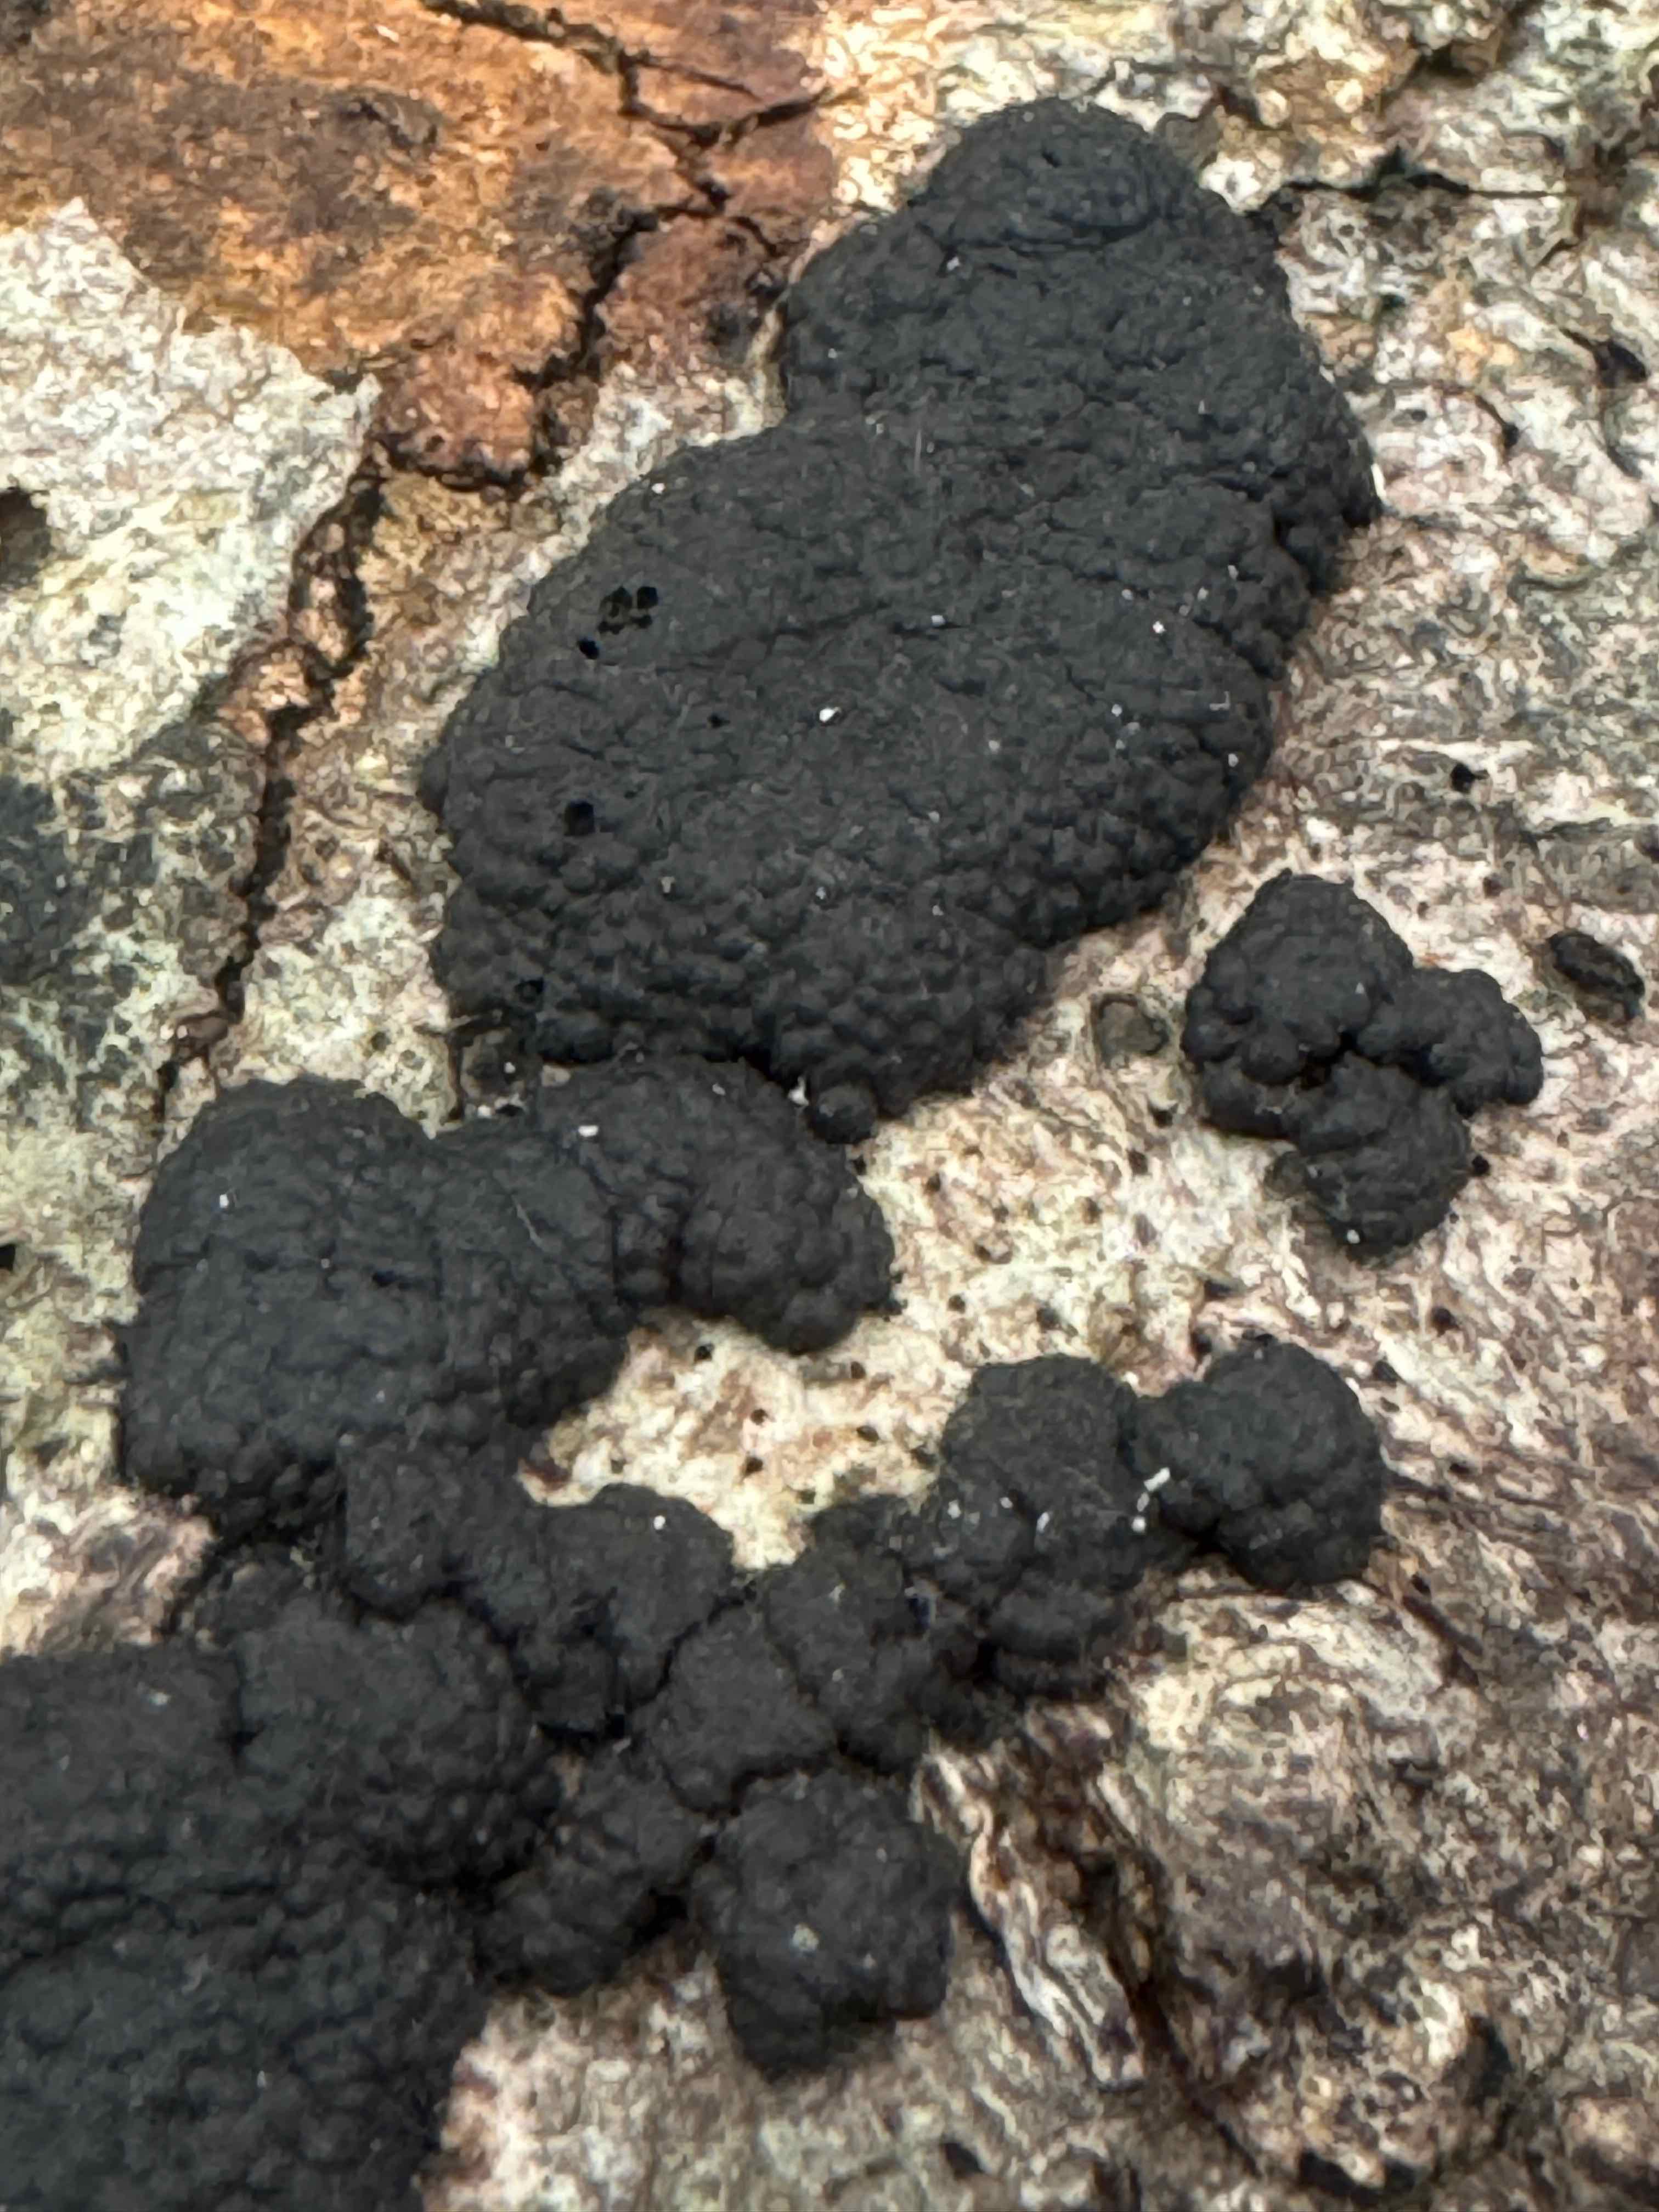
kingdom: Fungi
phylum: Ascomycota
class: Sordariomycetes
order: Xylariales
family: Hypoxylaceae
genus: Jackrogersella
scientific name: Jackrogersella cohaerens
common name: sammenflydende kulbær
